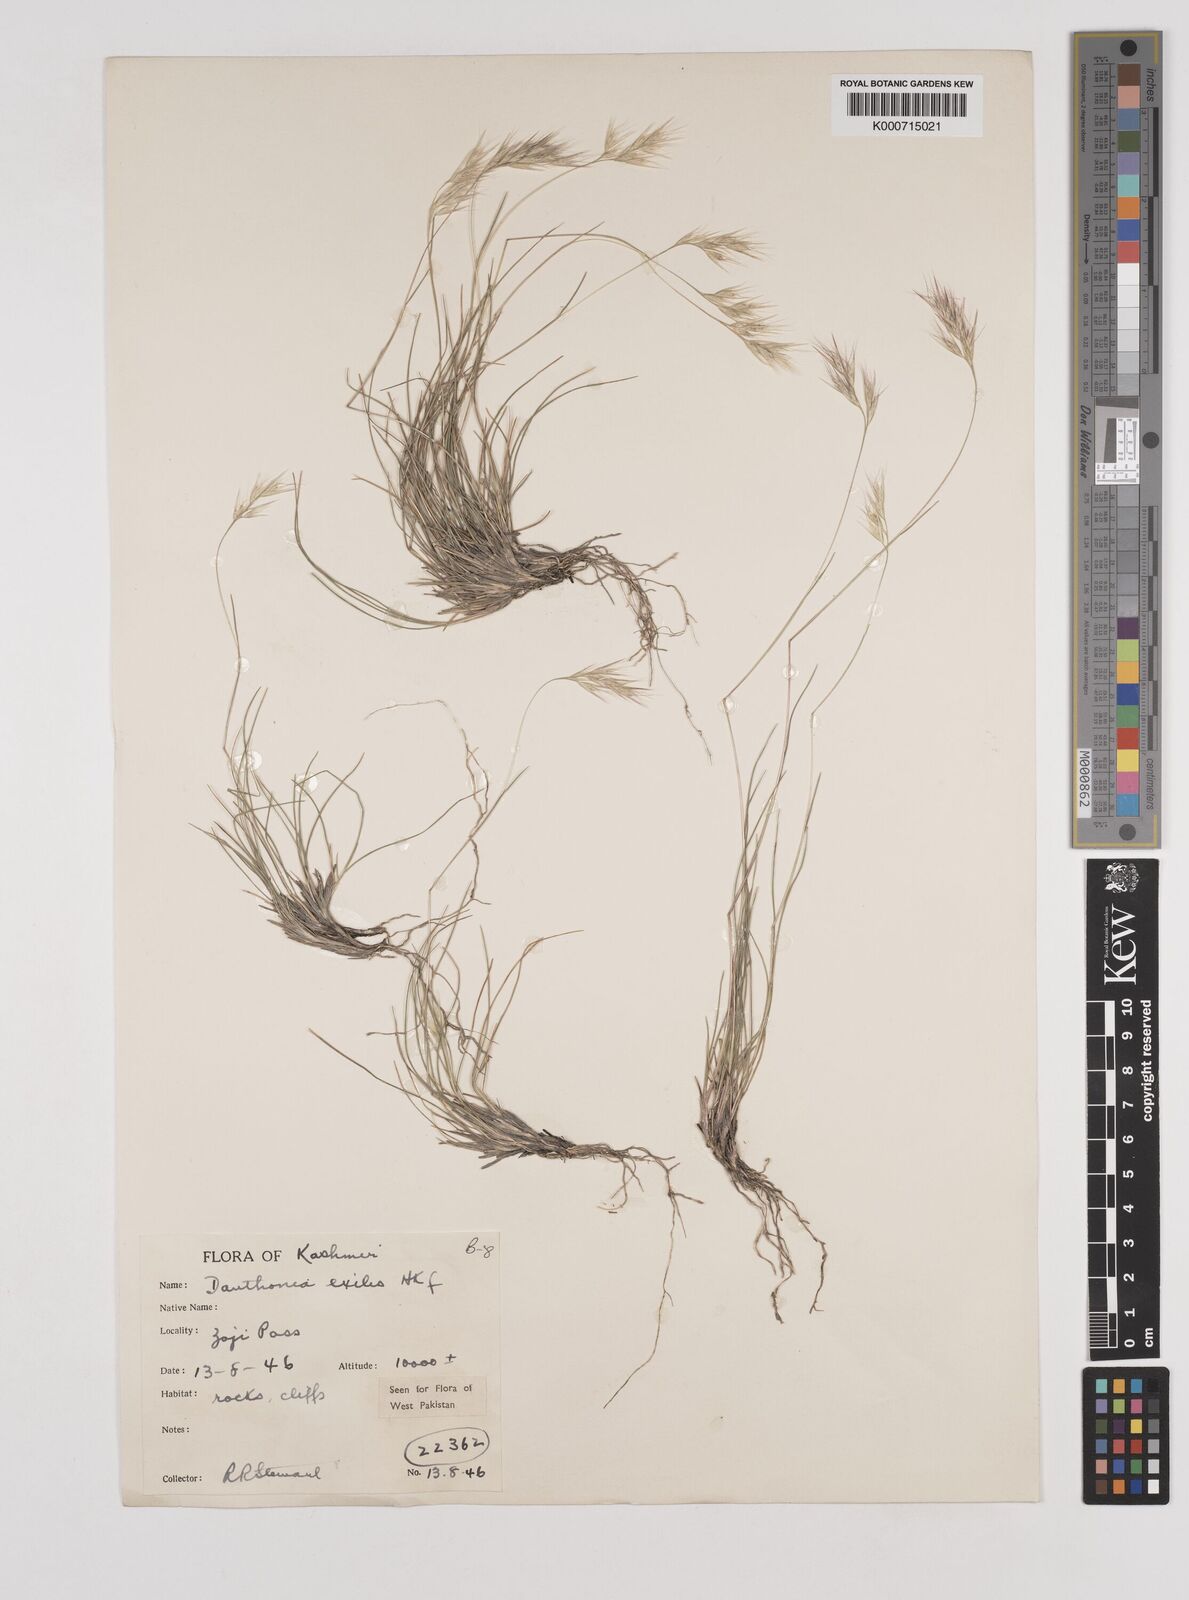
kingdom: Plantae
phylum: Tracheophyta
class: Liliopsida
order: Poales
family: Poaceae
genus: Rytidosperma
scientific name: Rytidosperma
